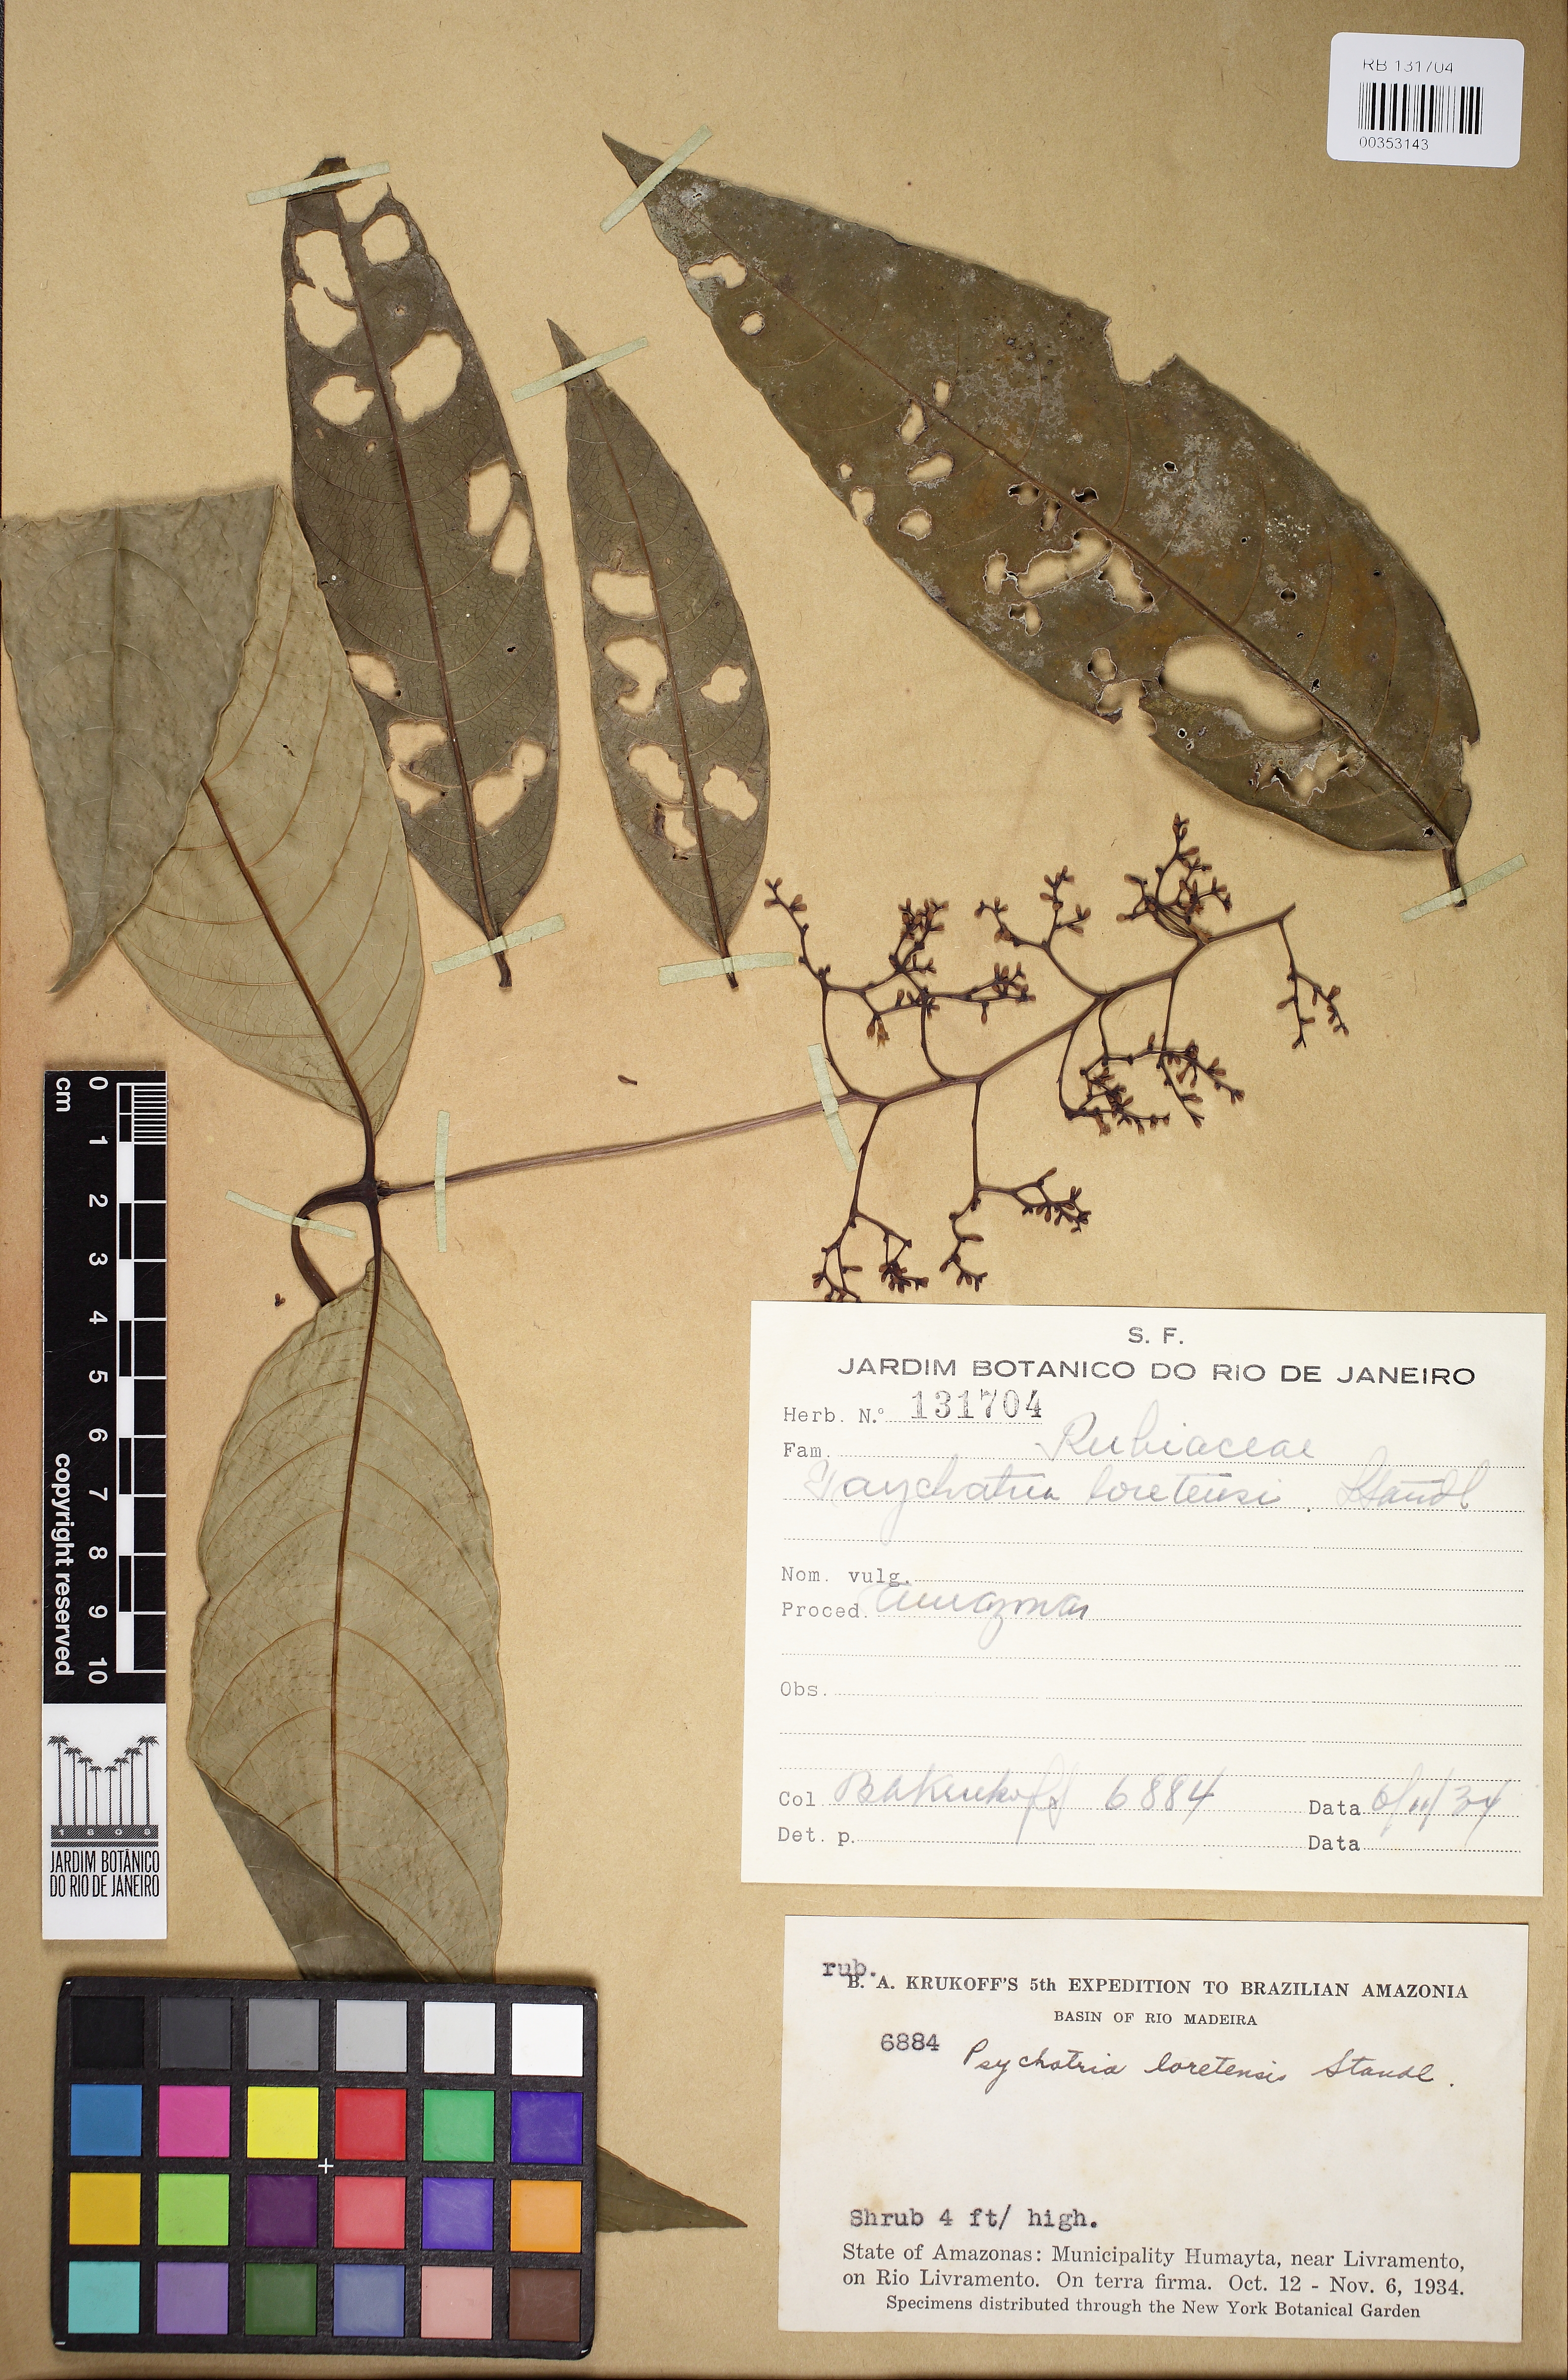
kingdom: Plantae
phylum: Tracheophyta
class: Magnoliopsida
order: Gentianales
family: Rubiaceae
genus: Palicourea
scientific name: Palicourea longicuspis
